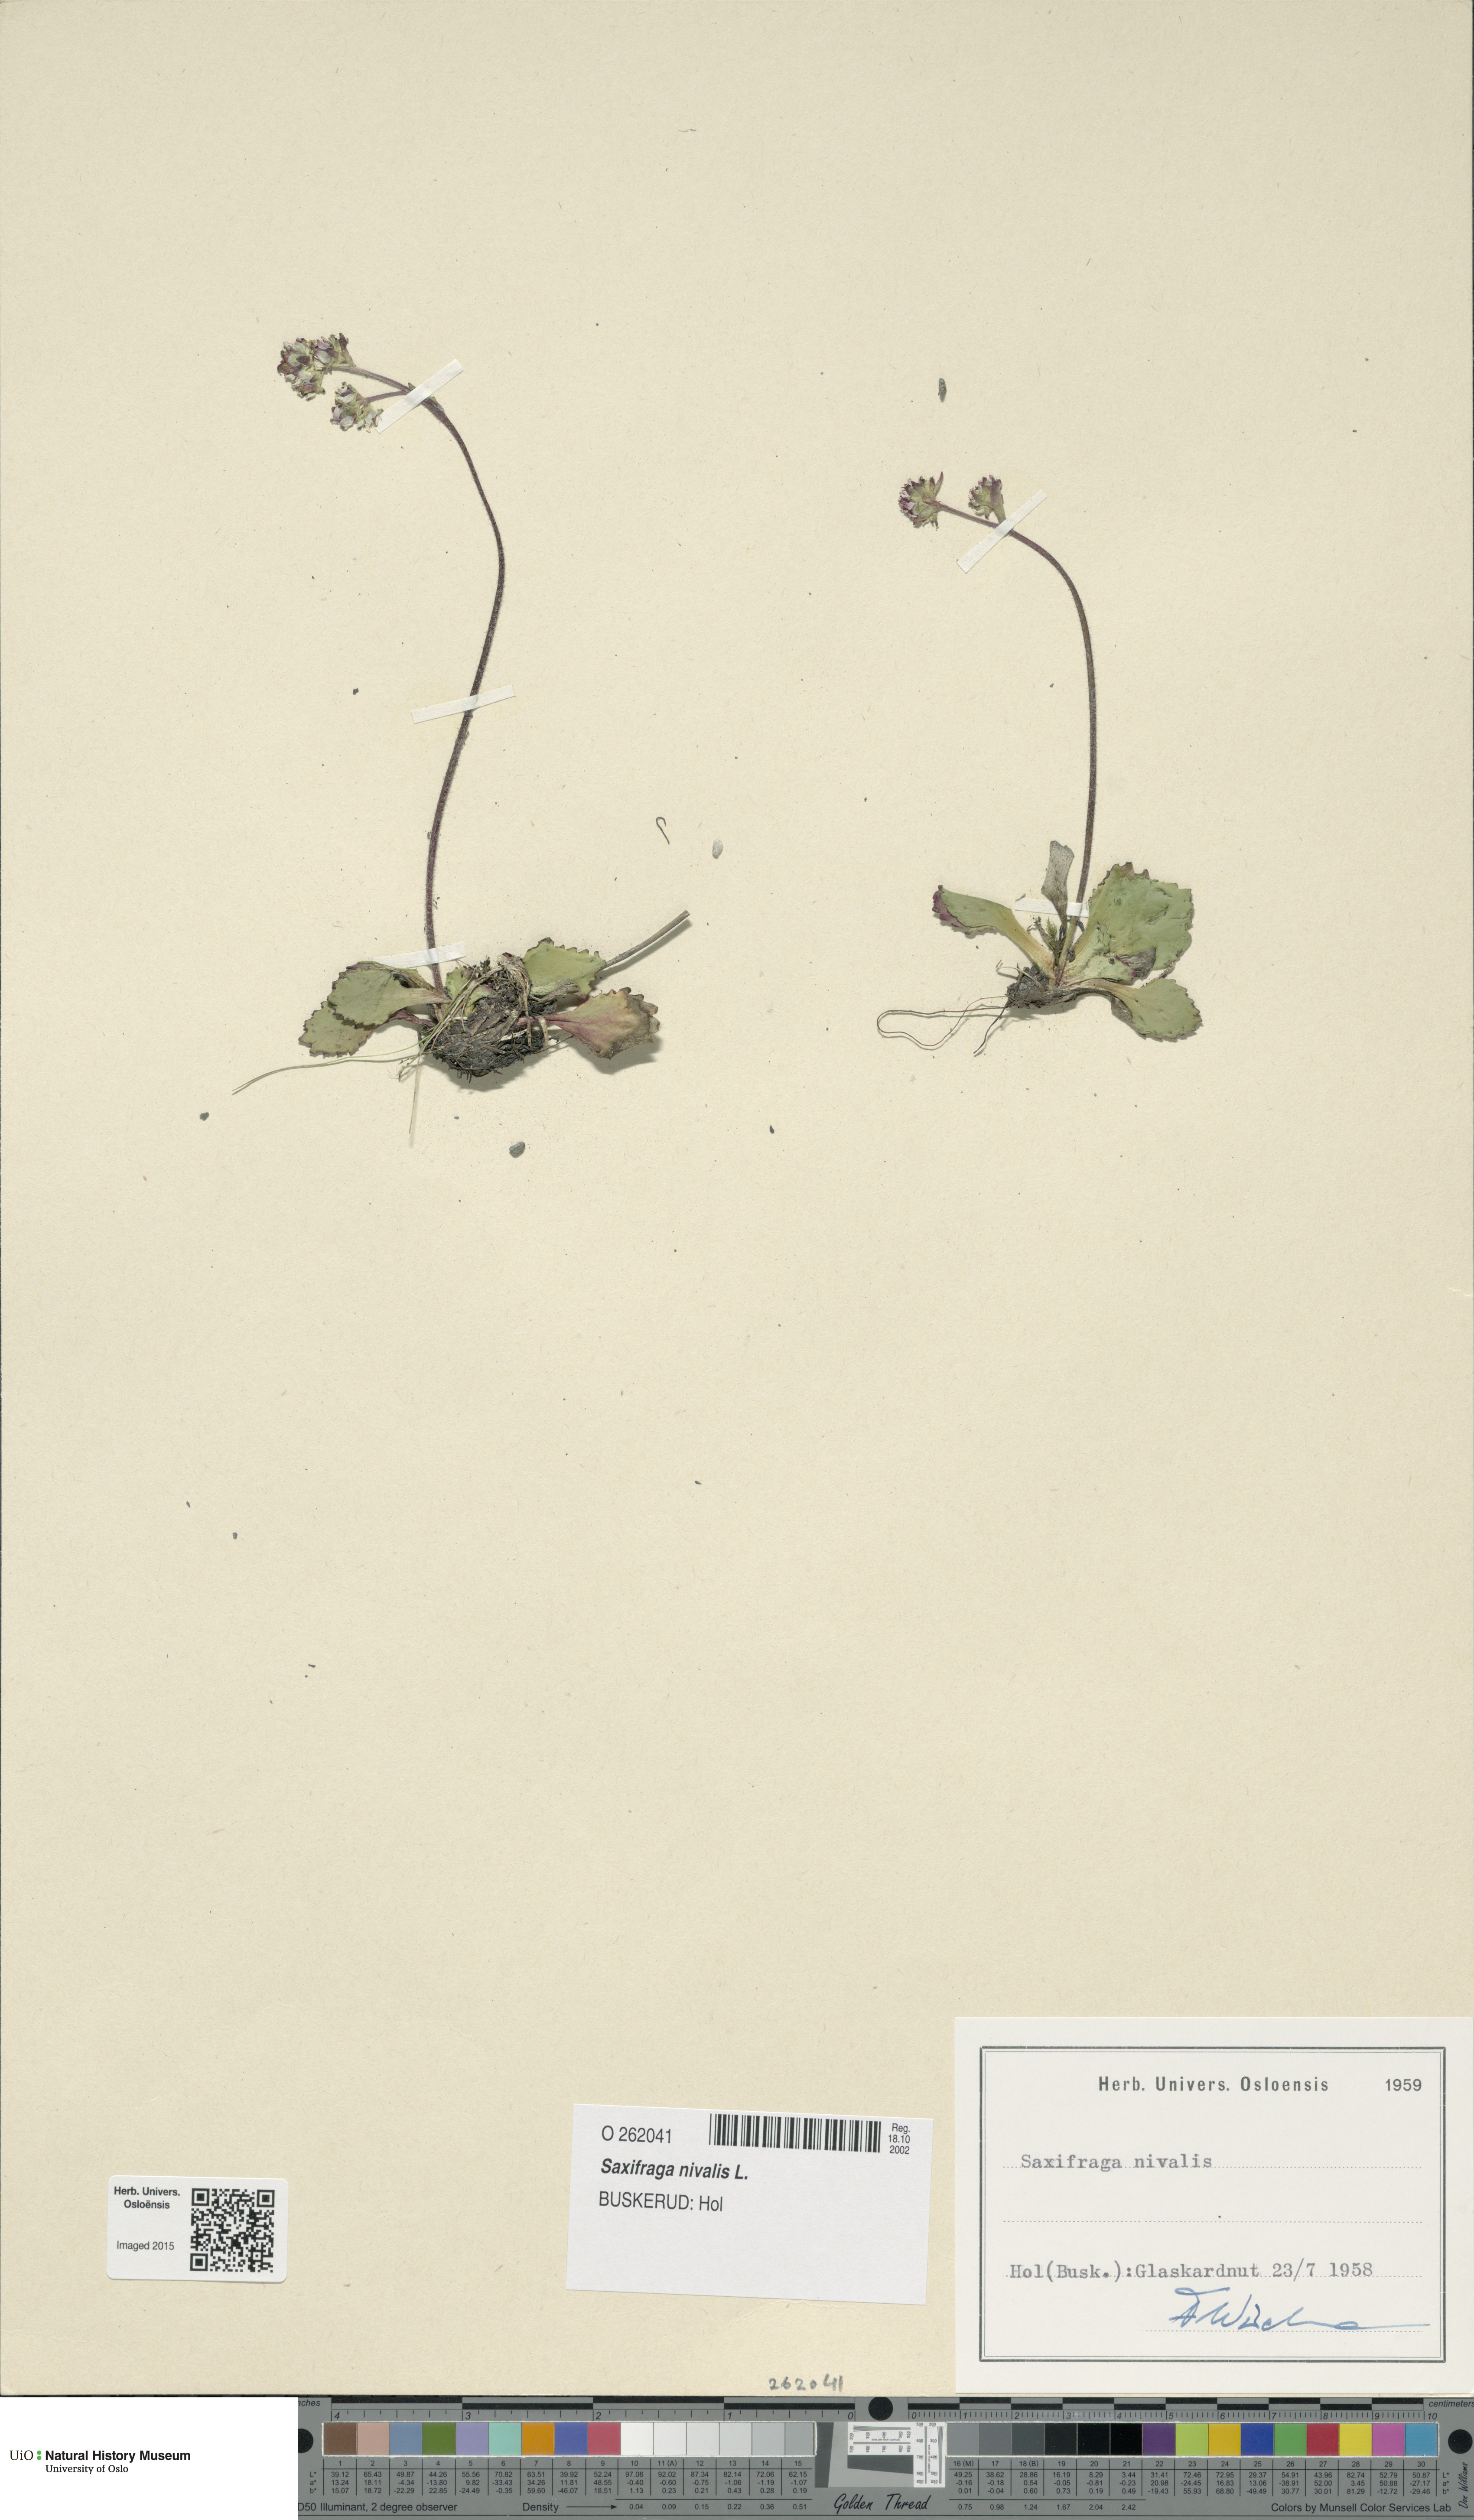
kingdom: Plantae
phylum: Tracheophyta
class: Magnoliopsida
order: Saxifragales
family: Saxifragaceae
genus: Micranthes
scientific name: Micranthes nivalis
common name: Alpine saxifrage
